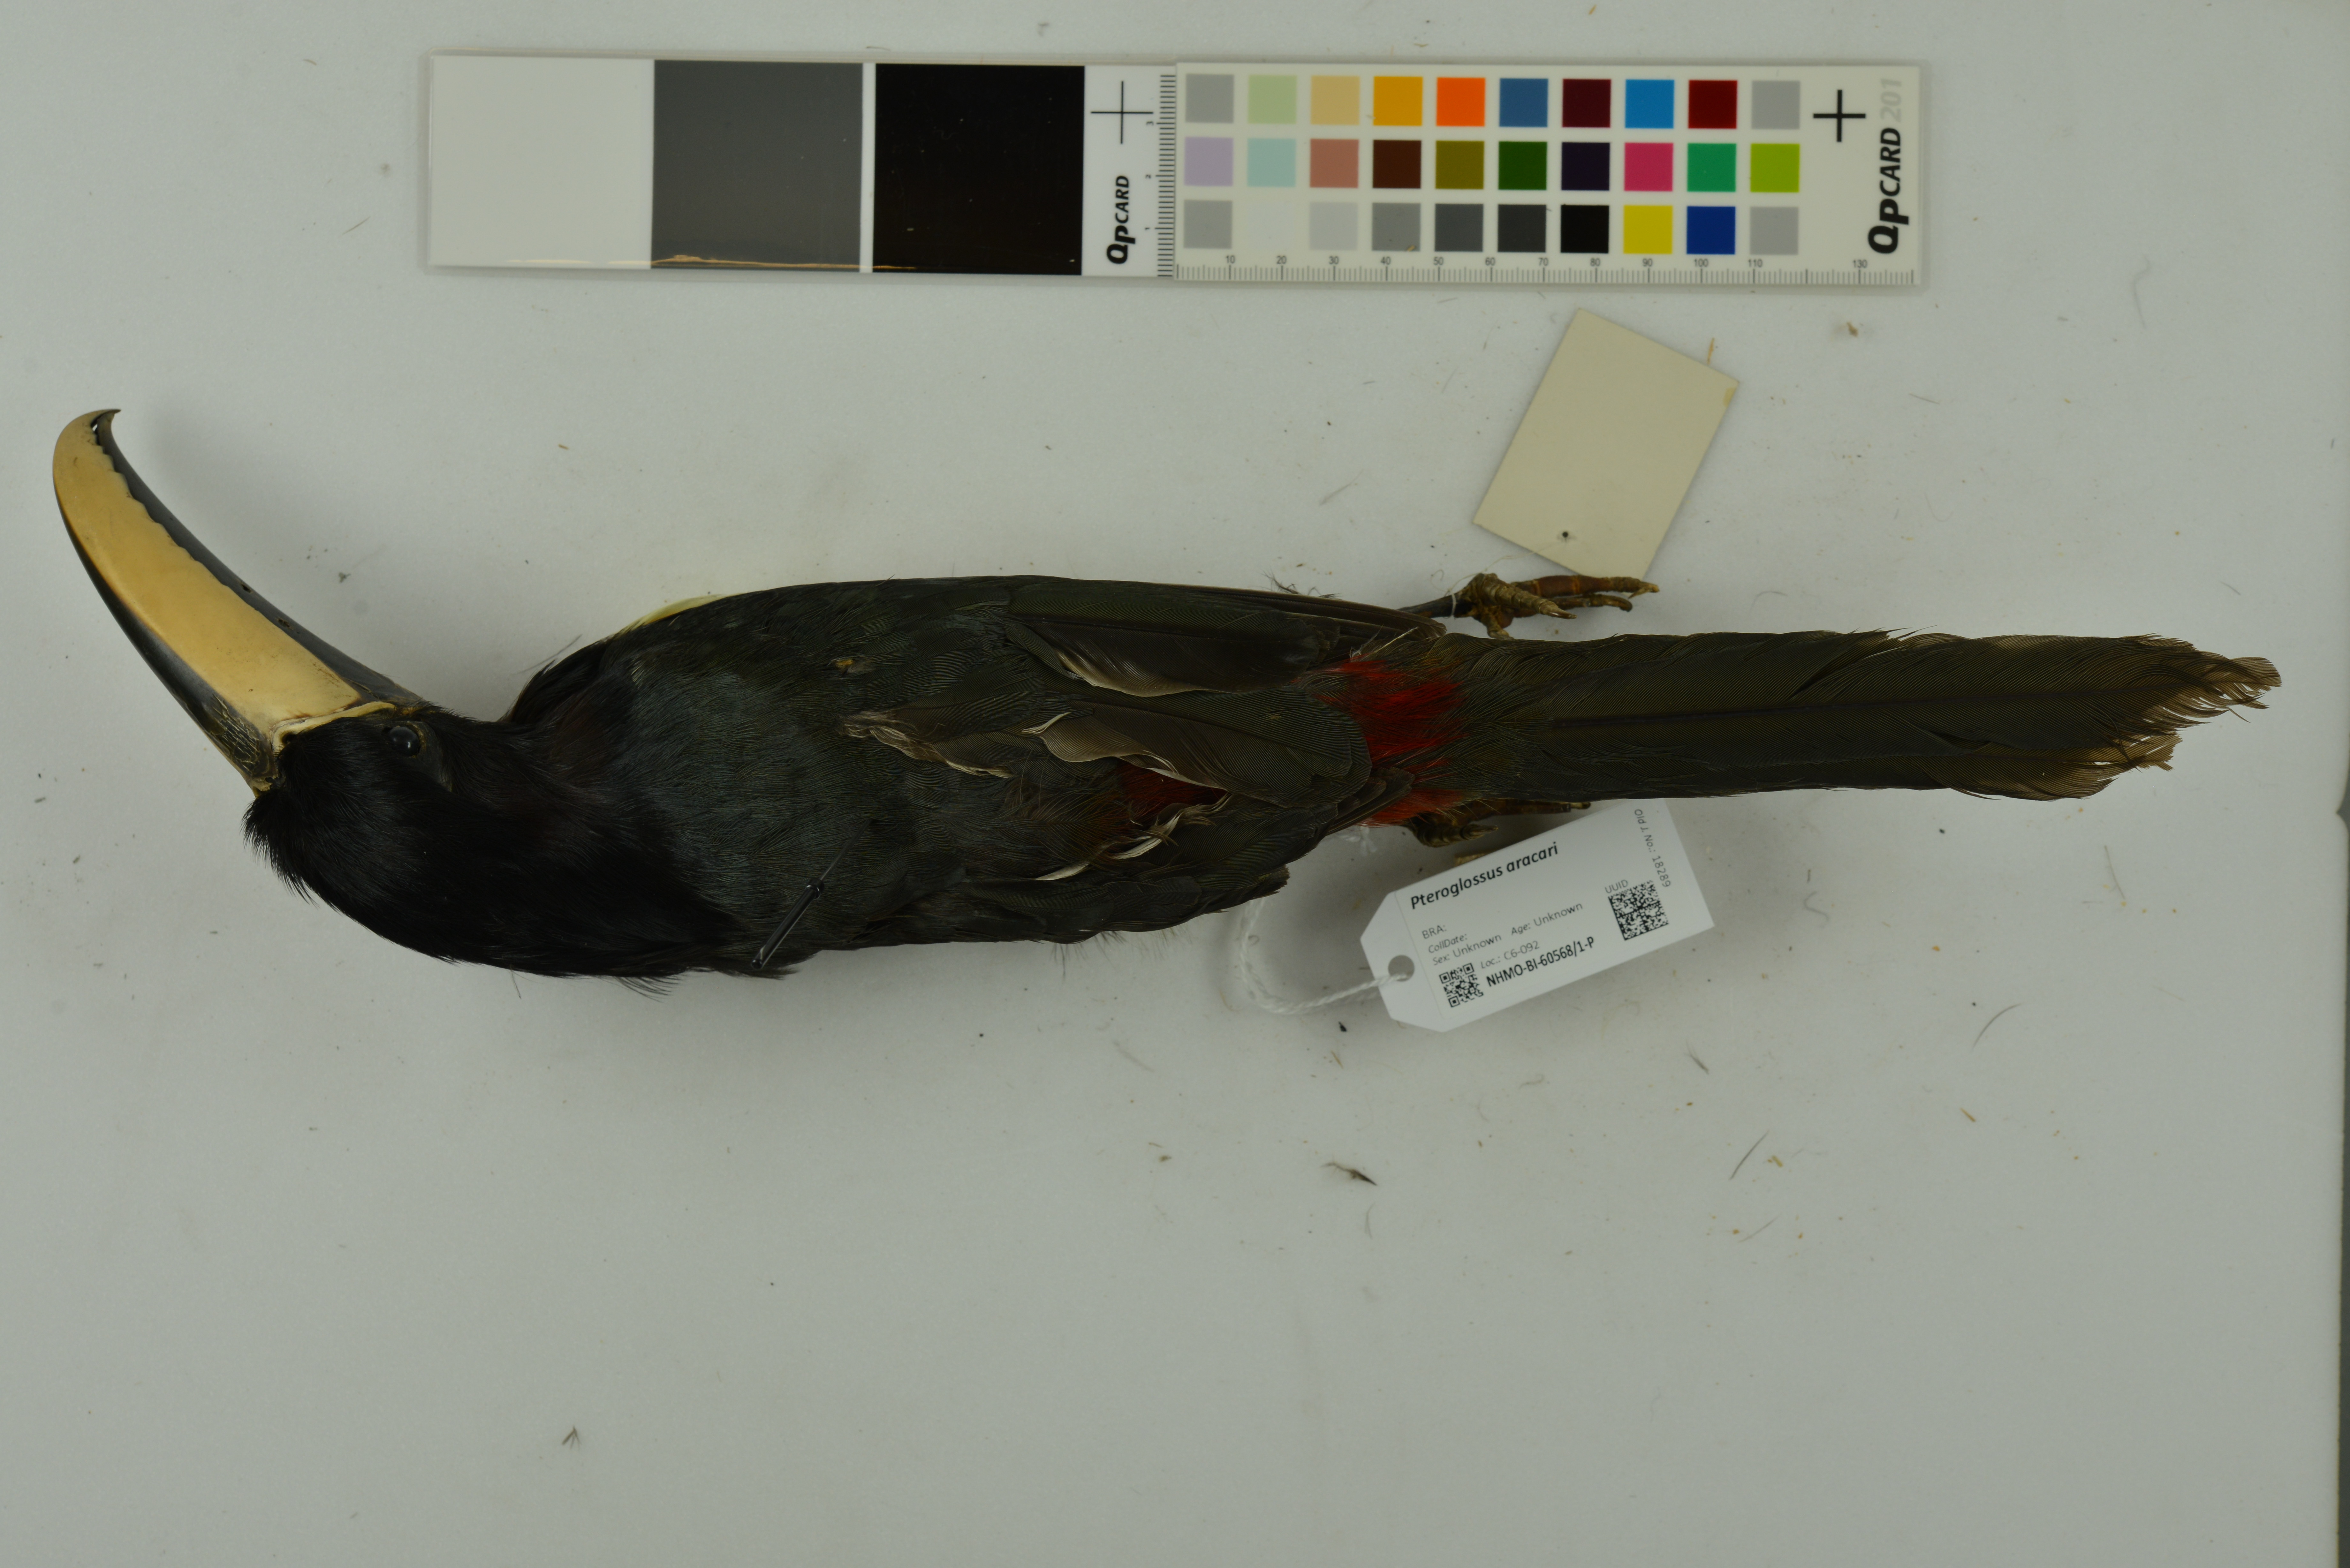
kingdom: Animalia
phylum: Chordata
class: Aves
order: Piciformes
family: Ramphastidae
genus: Pteroglossus
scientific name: Pteroglossus aracari
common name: Black-necked aracari
